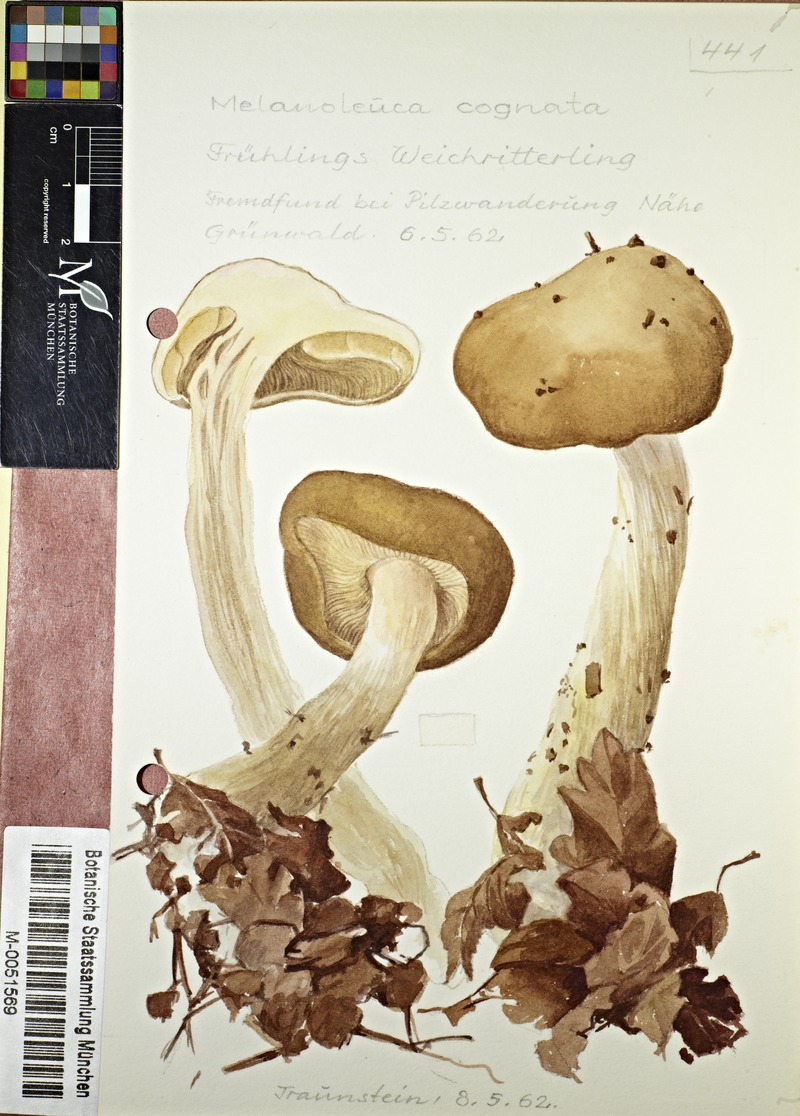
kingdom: Fungi
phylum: Basidiomycota
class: Agaricomycetes
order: Agaricales
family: Tricholomataceae
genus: Melanoleuca
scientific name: Melanoleuca cognata
